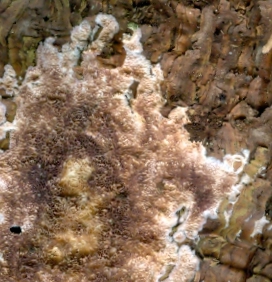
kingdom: Fungi
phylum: Basidiomycota
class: Agaricomycetes
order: Hymenochaetales
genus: Trichaptum
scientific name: Trichaptum abietinum
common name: almindelig violporesvamp
